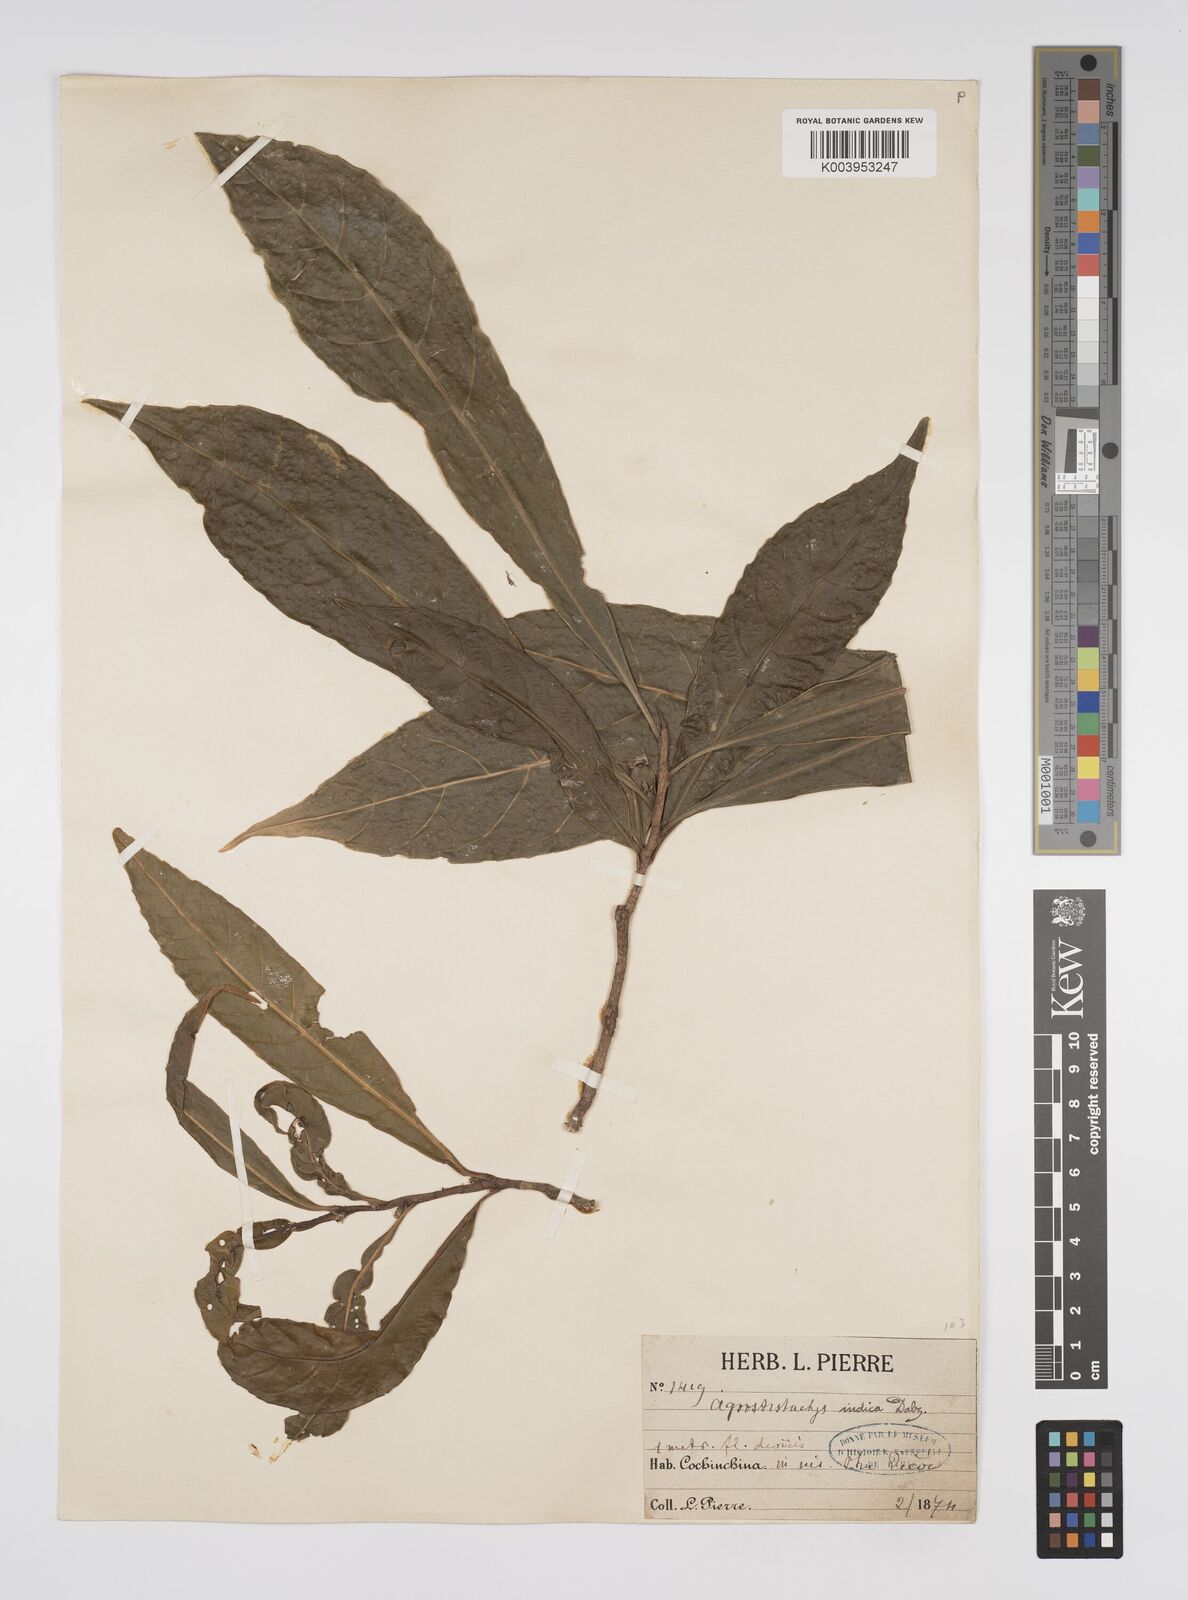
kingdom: Plantae
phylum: Tracheophyta
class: Magnoliopsida
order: Malpighiales
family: Euphorbiaceae
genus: Agrostistachys
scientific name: Agrostistachys indica
